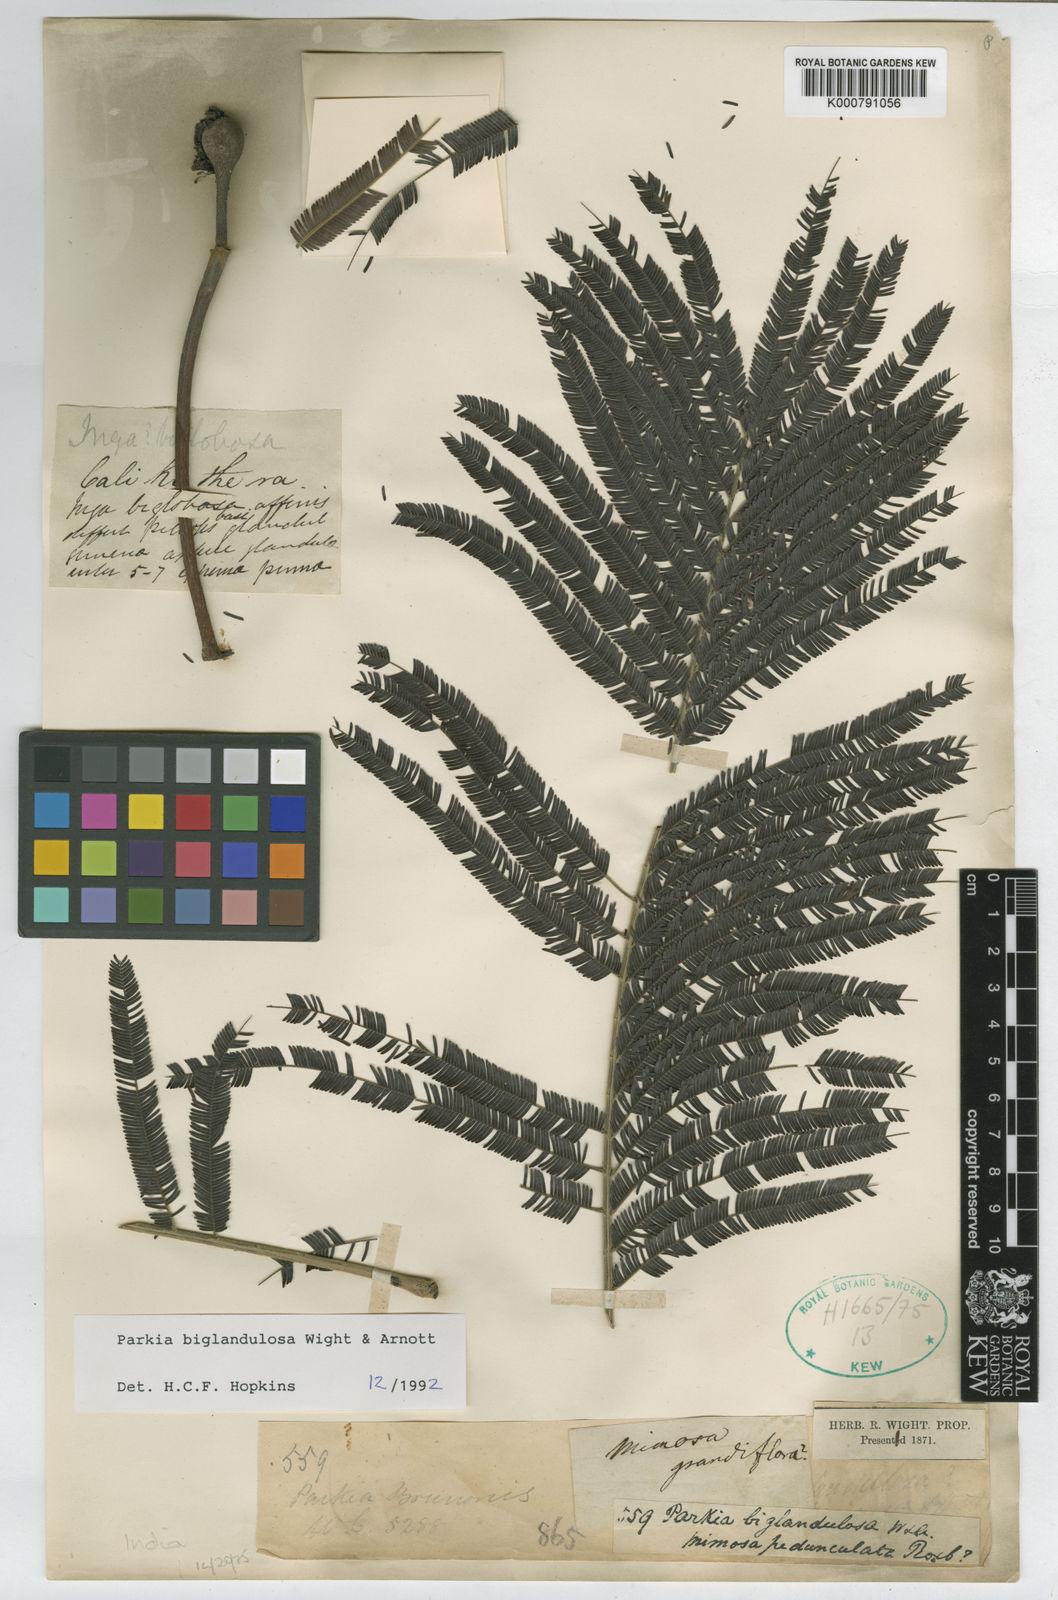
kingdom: Plantae
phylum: Tracheophyta
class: Magnoliopsida
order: Fabales
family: Fabaceae
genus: Parkia
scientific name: Parkia biglandulosa
